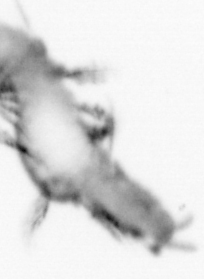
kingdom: Animalia
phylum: Annelida
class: Polychaeta
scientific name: Polychaeta
